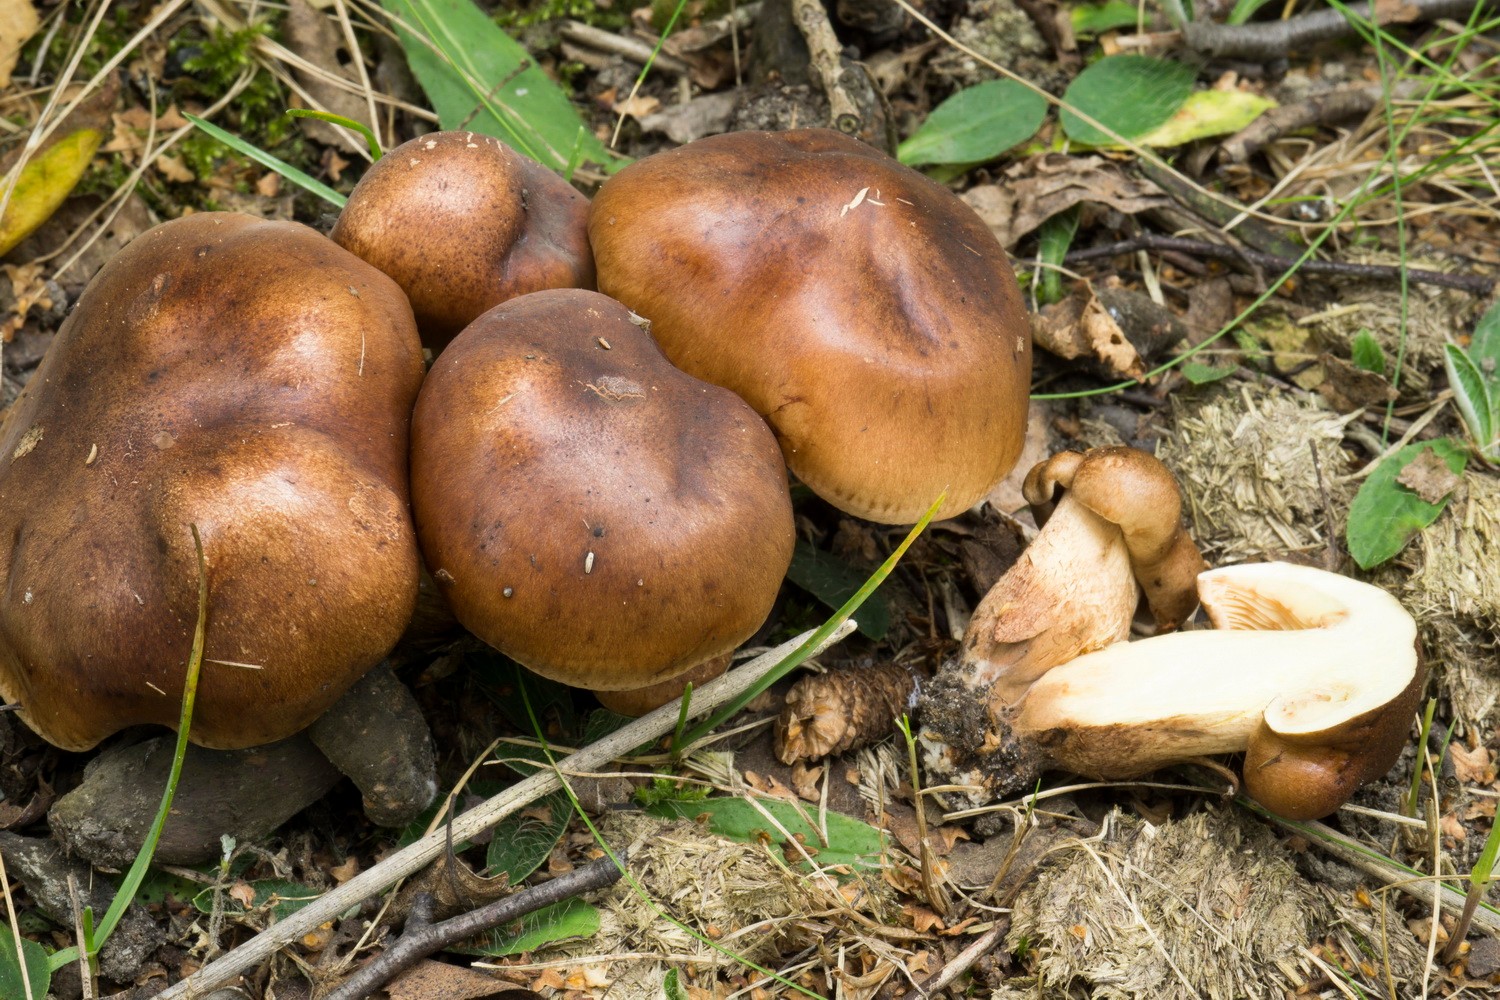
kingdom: Fungi
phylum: Basidiomycota
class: Agaricomycetes
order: Agaricales
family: Tricholomataceae
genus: Tricholoma
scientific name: Tricholoma fulvum
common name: birke-ridderhat
